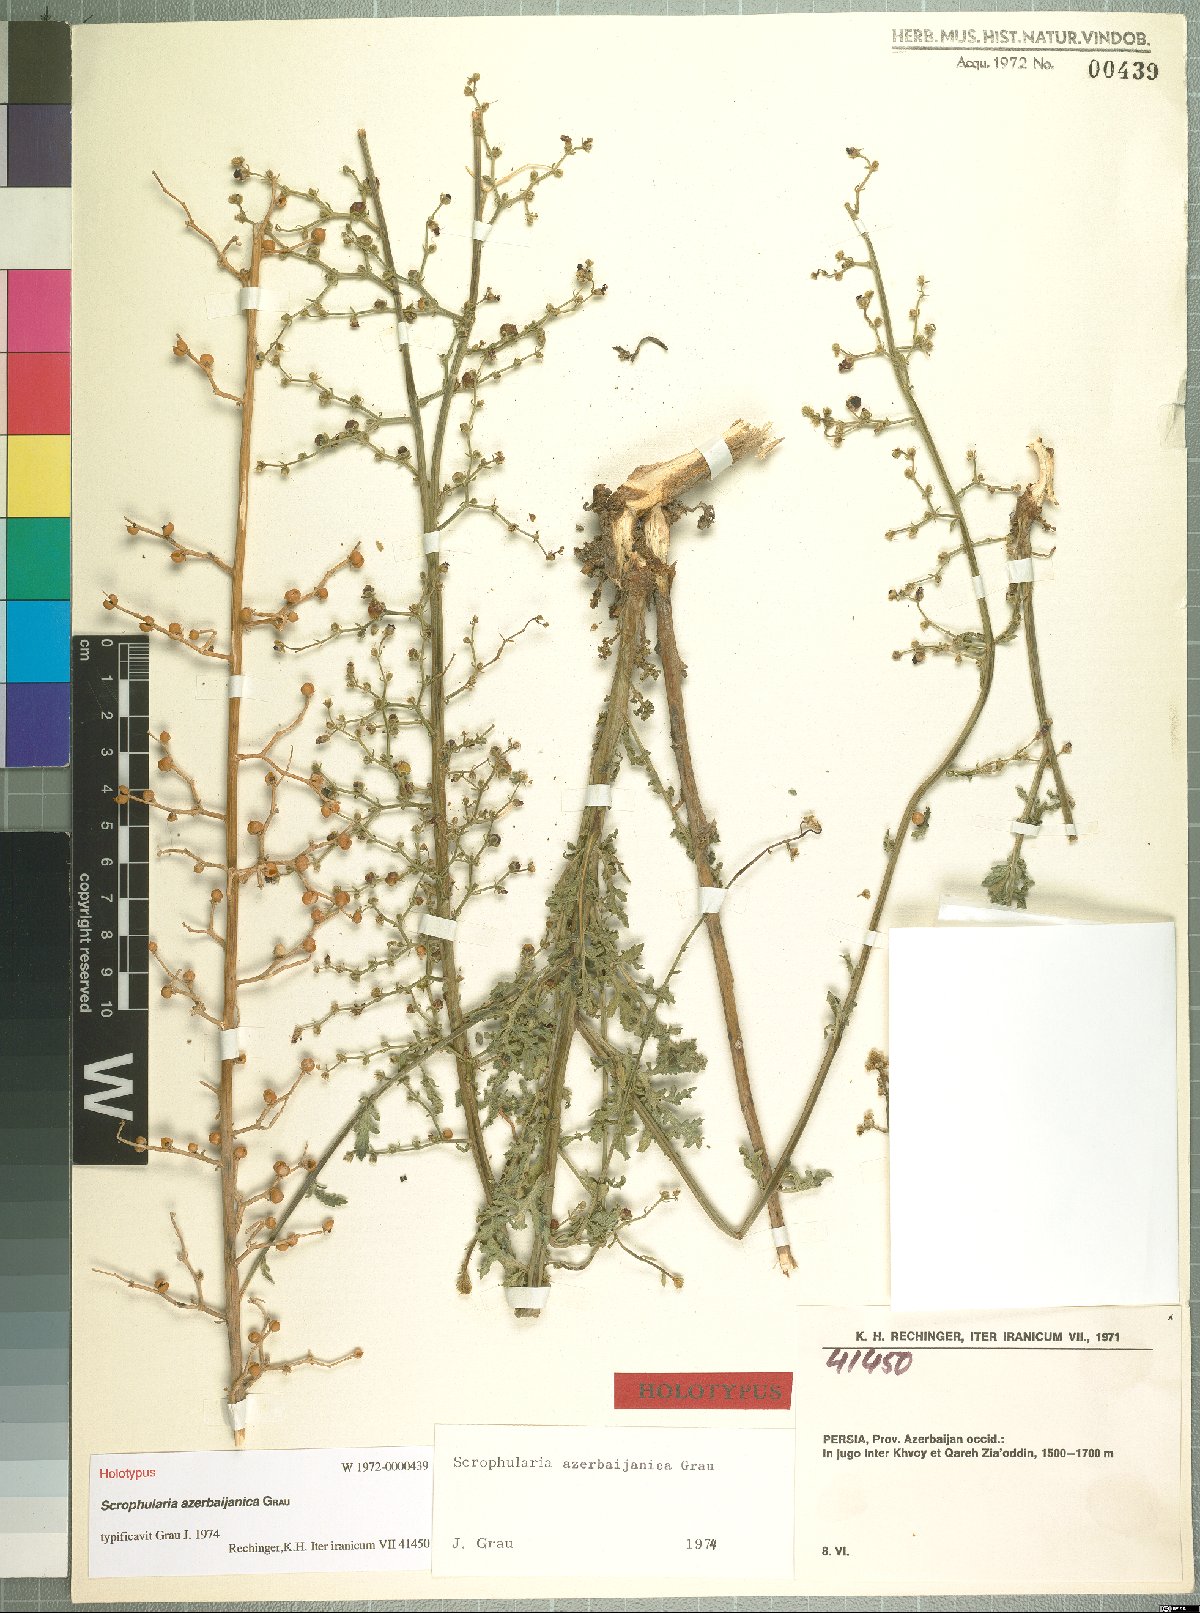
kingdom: Plantae
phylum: Tracheophyta
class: Magnoliopsida
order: Lamiales
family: Scrophulariaceae
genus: Scrophularia
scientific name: Scrophularia azerbaijanica
